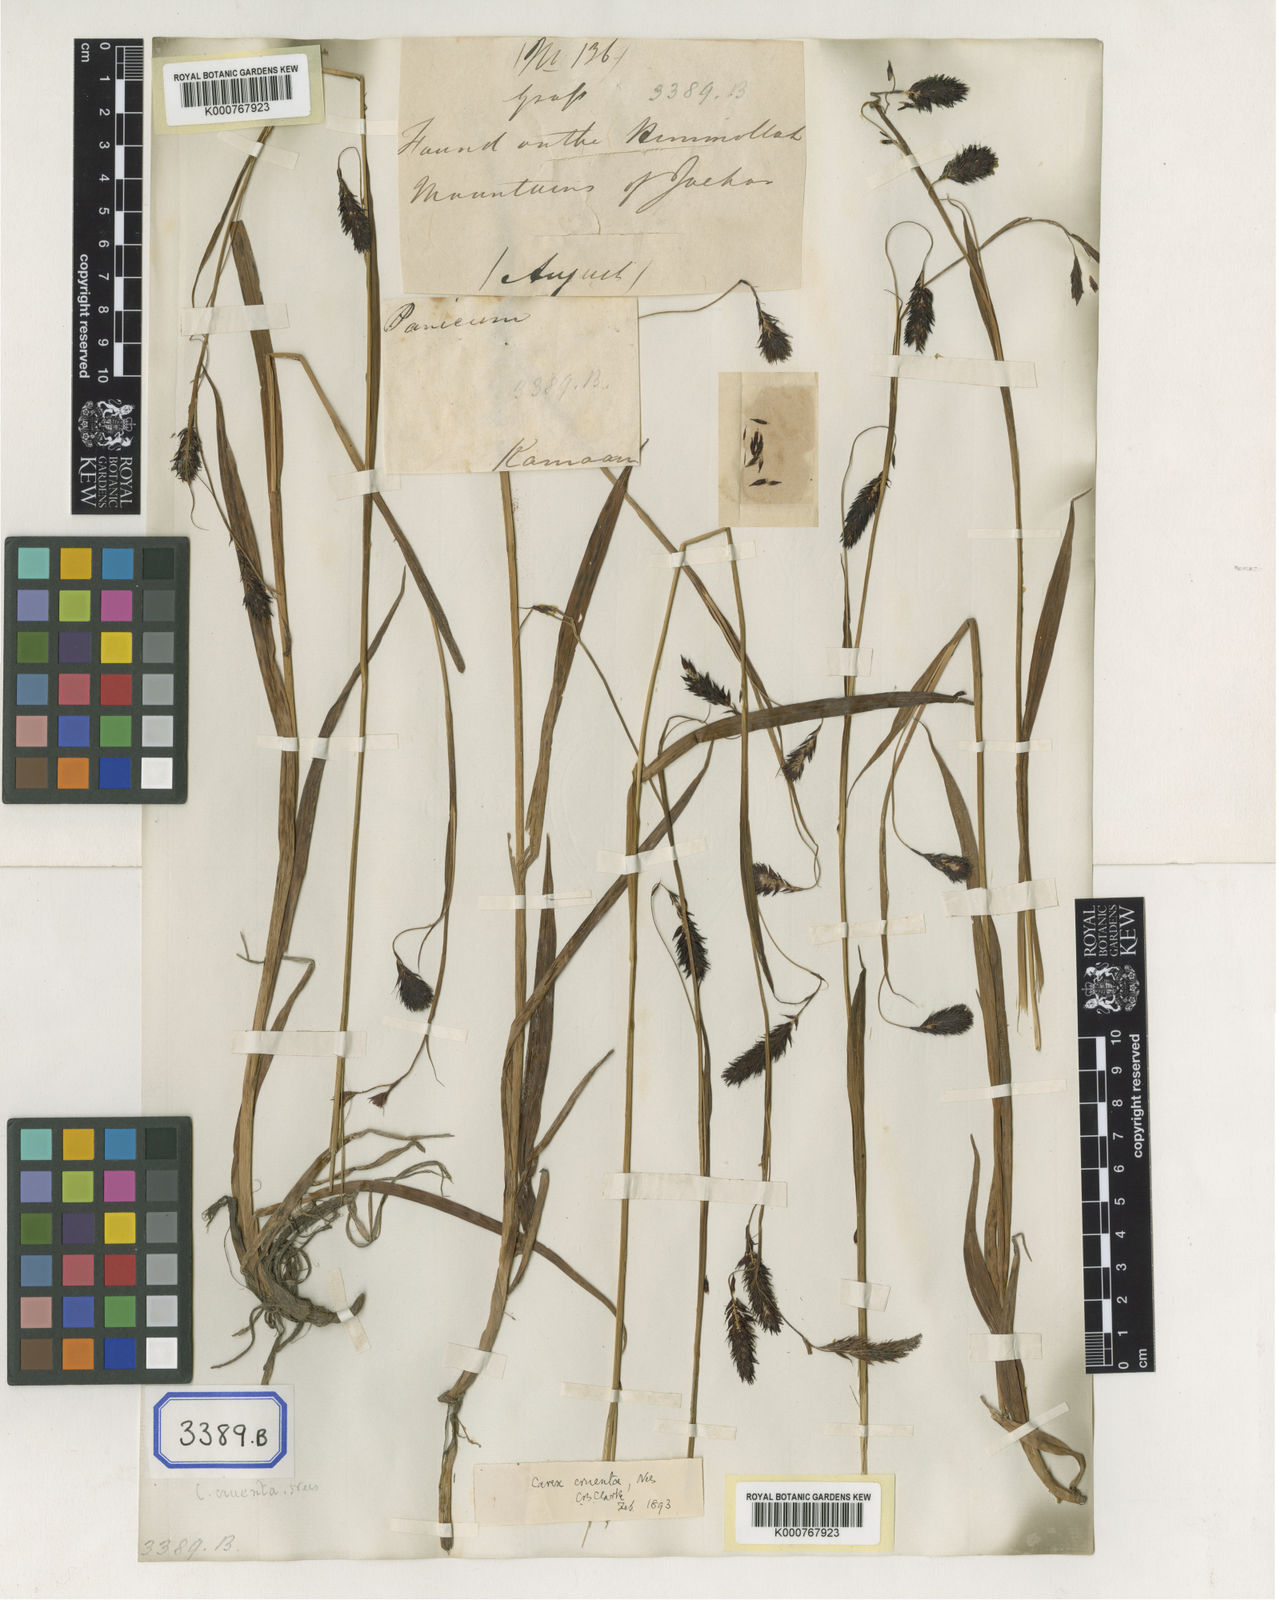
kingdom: Plantae
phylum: Tracheophyta
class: Liliopsida
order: Poales
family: Cyperaceae
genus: Carex
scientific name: Carex
